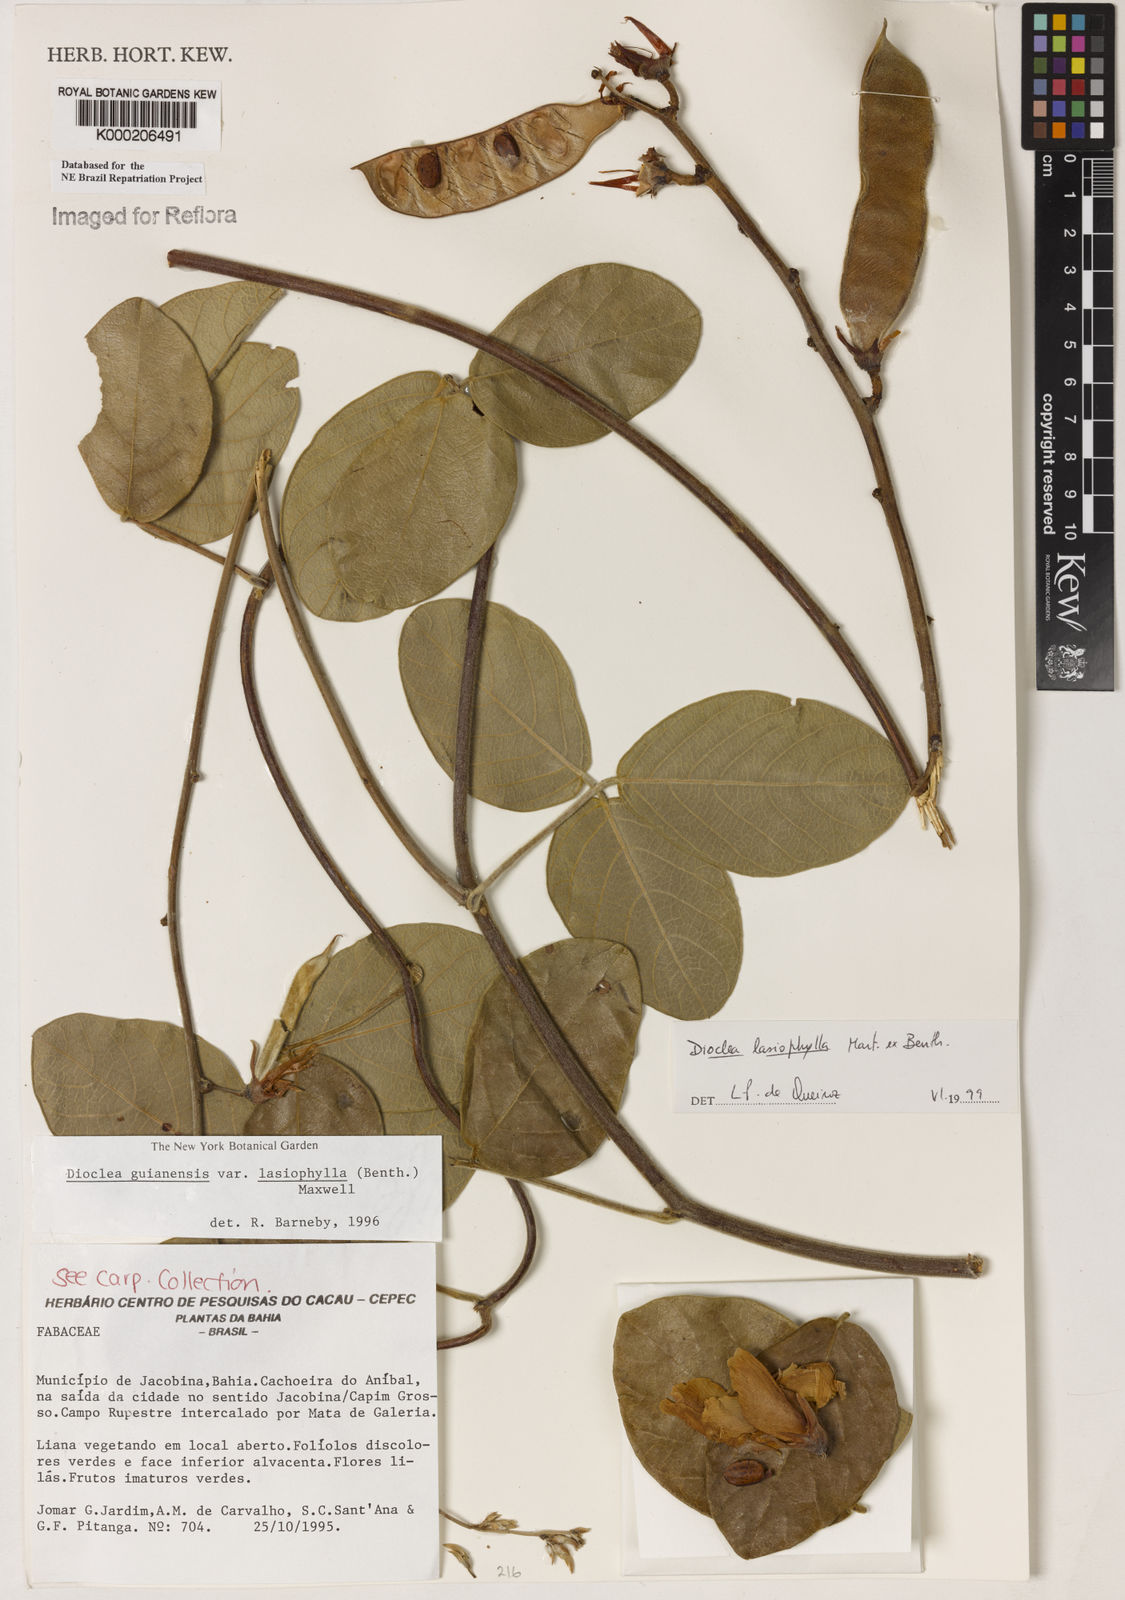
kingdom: Plantae
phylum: Tracheophyta
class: Magnoliopsida
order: Fabales
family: Fabaceae
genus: Dioclea
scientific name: Dioclea lasiophylla
